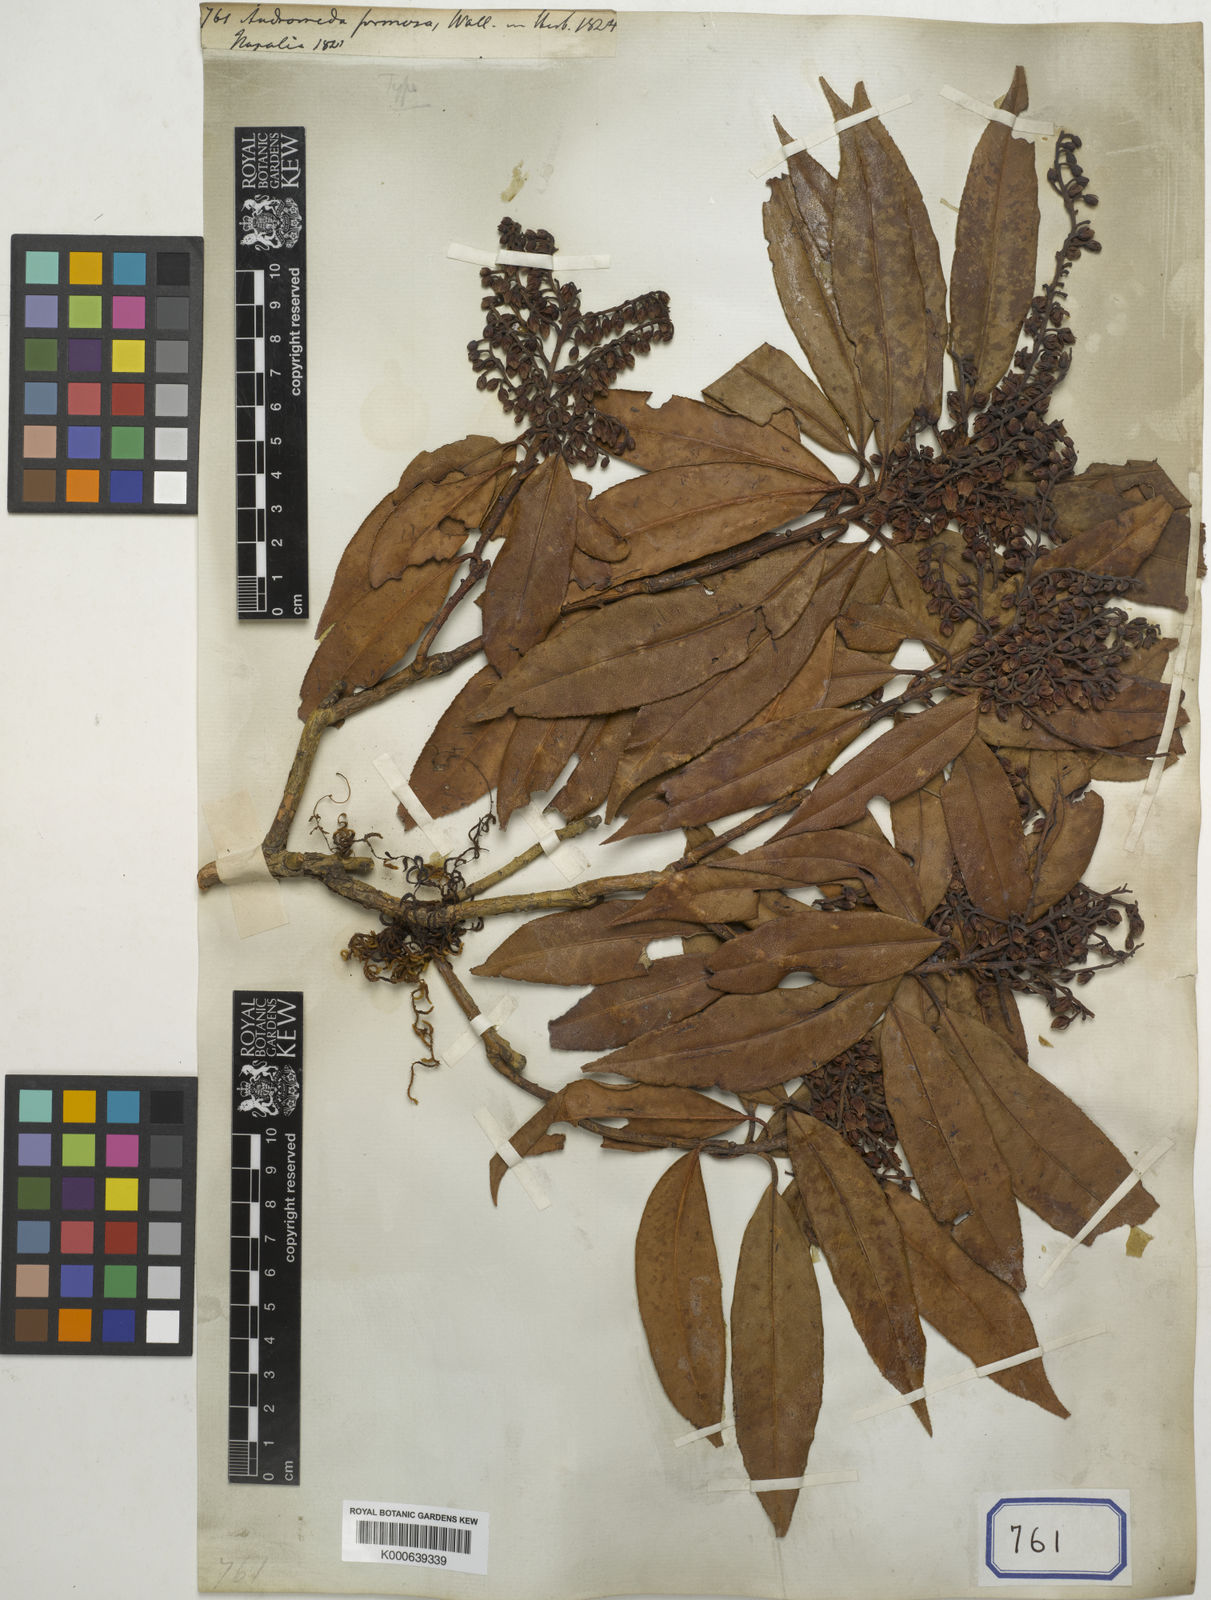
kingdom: Plantae
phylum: Tracheophyta
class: Magnoliopsida
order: Ericales
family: Ericaceae
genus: Pieris
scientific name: Pieris formosa
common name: Formosan pieris
